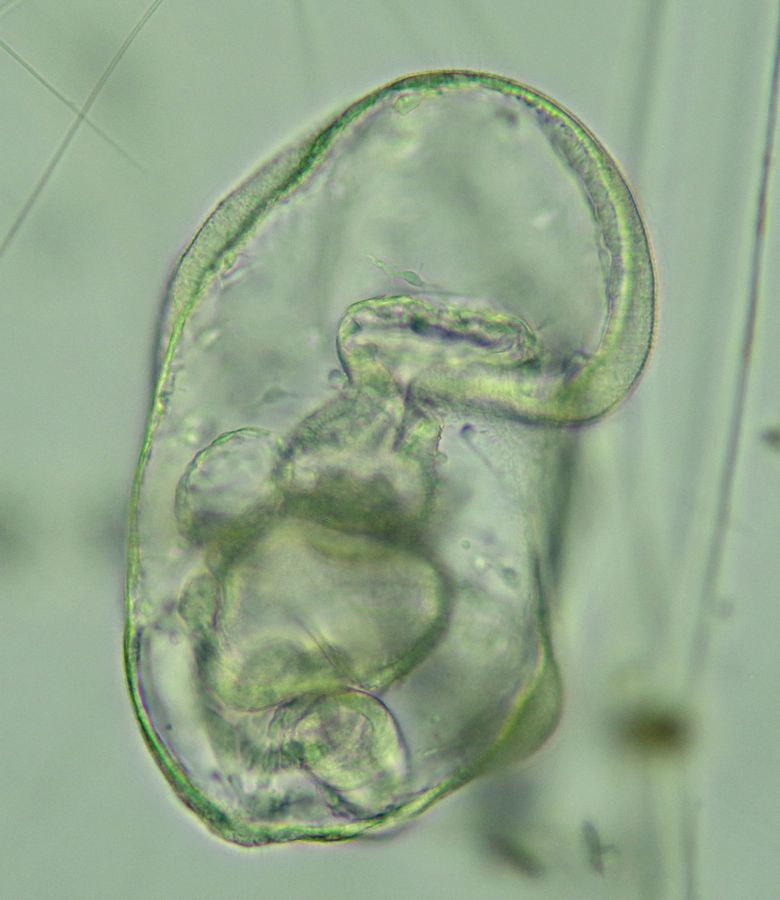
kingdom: Animalia
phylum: Echinodermata
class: Asteroidea
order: Forcipulatida
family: Asteriidae
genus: Asterias
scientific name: Asterias rubens
